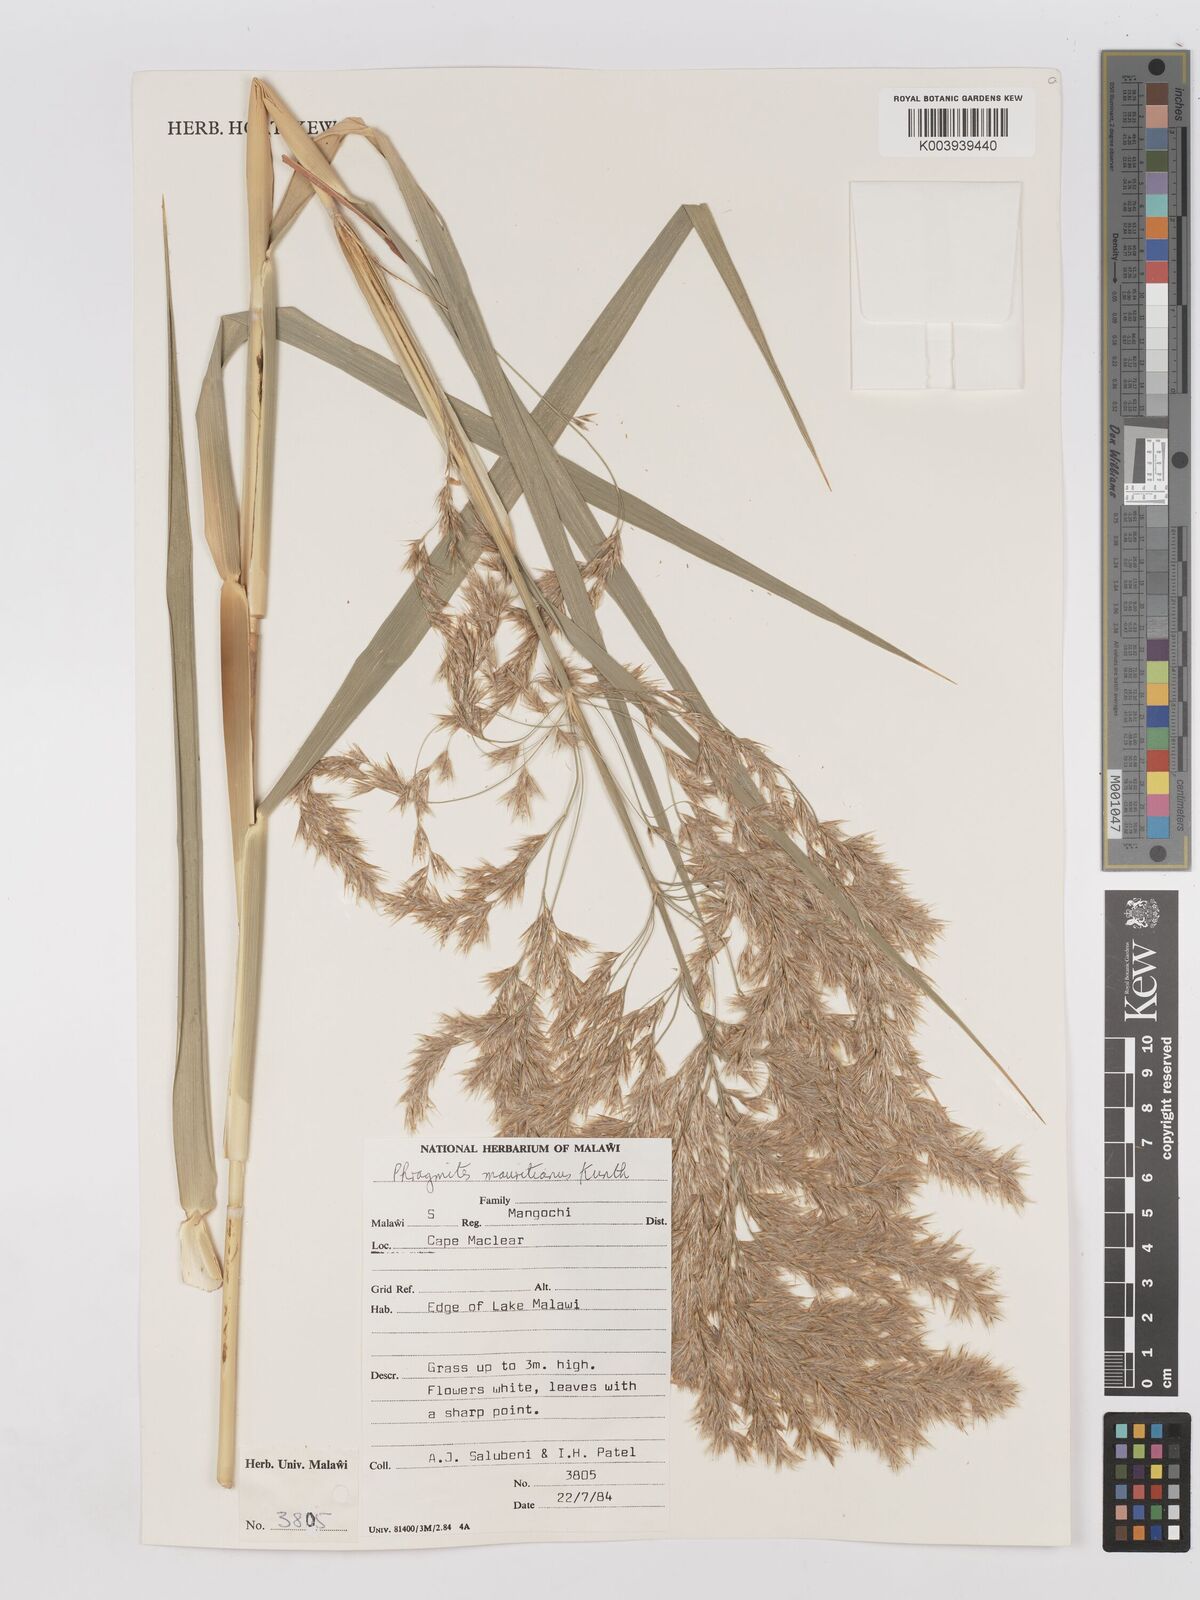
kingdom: Plantae
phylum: Tracheophyta
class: Liliopsida
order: Poales
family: Poaceae
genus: Phragmites
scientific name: Phragmites mauritianus
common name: Reed grass
